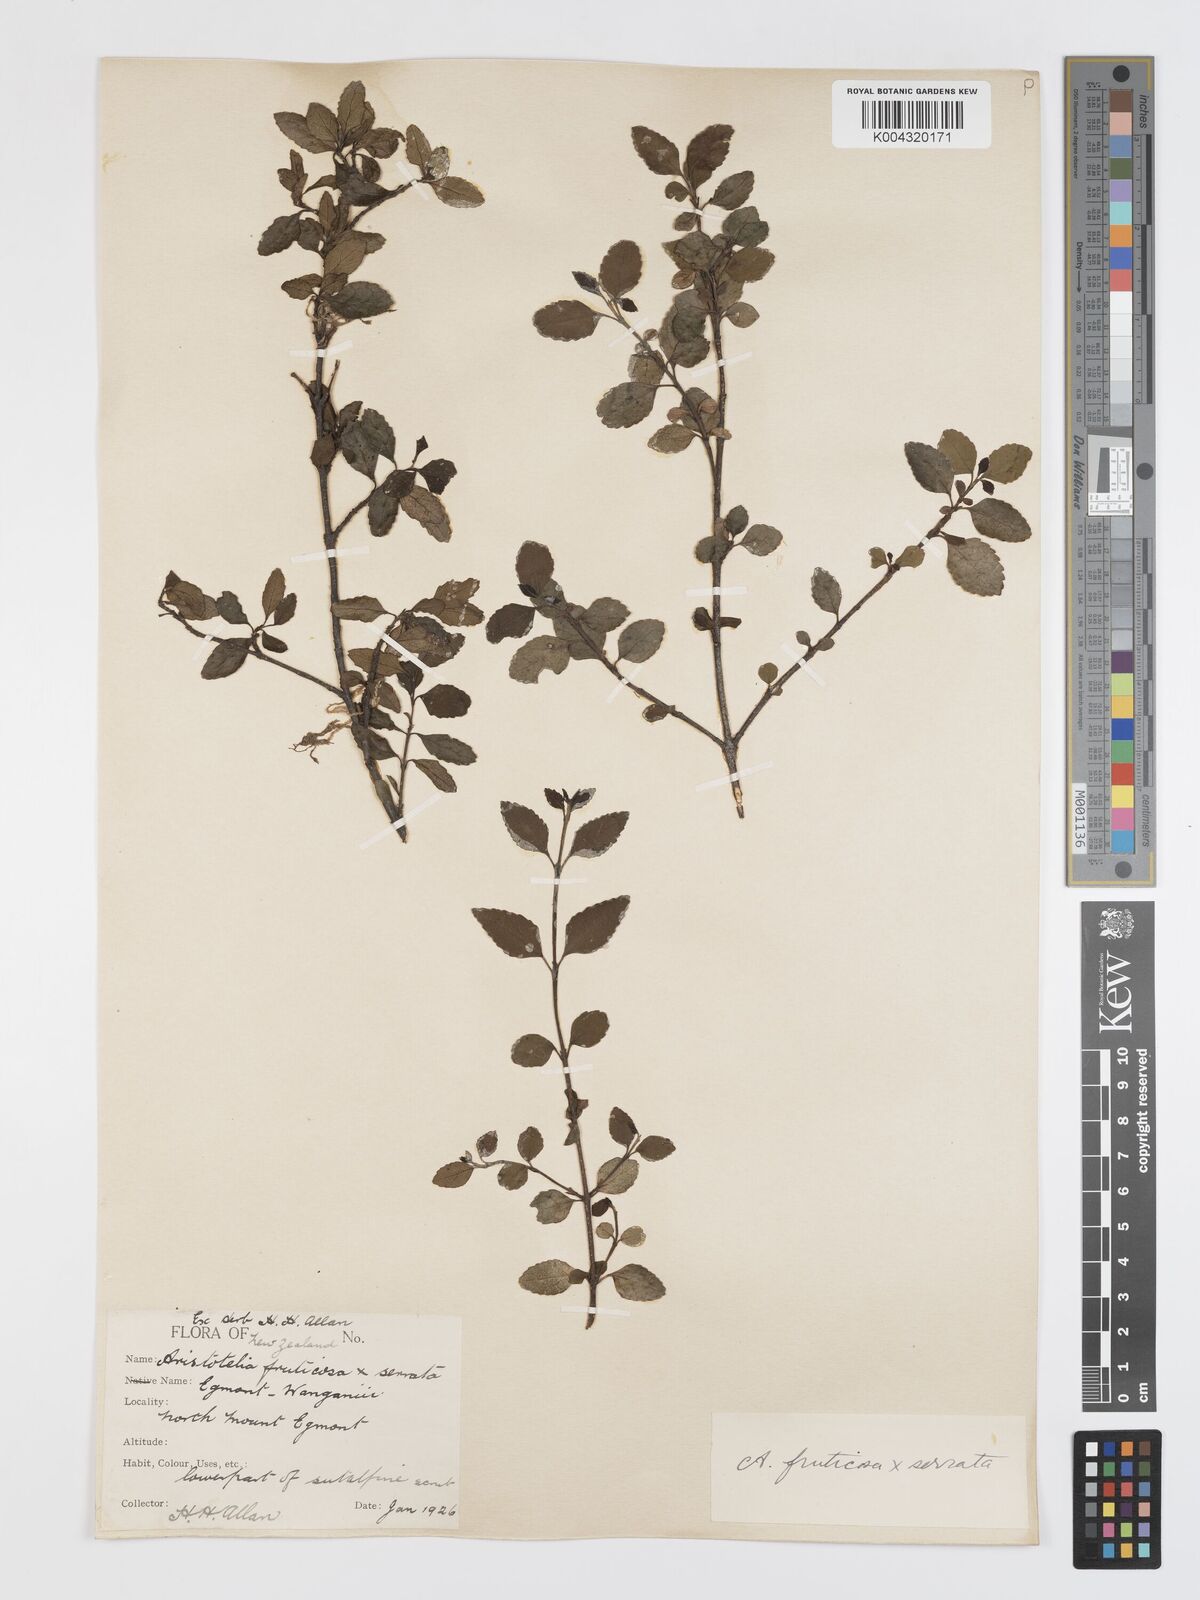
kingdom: Plantae
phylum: Tracheophyta
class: Magnoliopsida
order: Oxalidales
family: Elaeocarpaceae
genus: Aristotelia
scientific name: Aristotelia fruticosa
